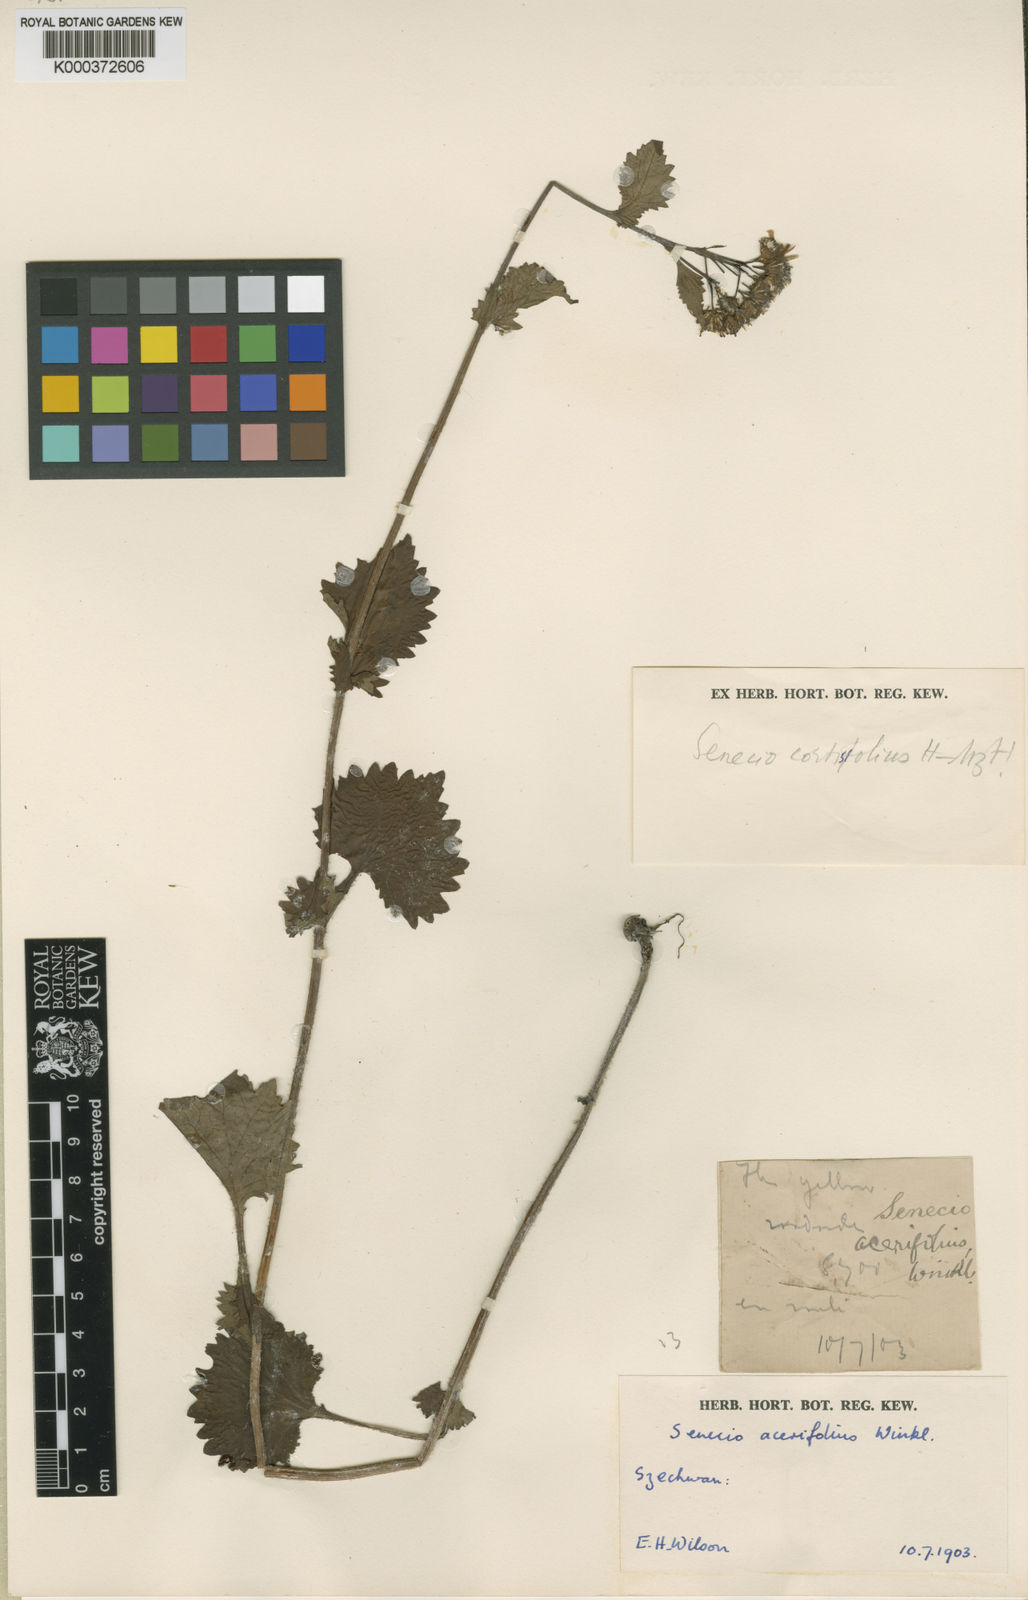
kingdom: Plantae
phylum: Tracheophyta
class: Magnoliopsida
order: Asterales
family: Asteraceae
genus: Sinosenecio
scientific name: Sinosenecio euosmus
